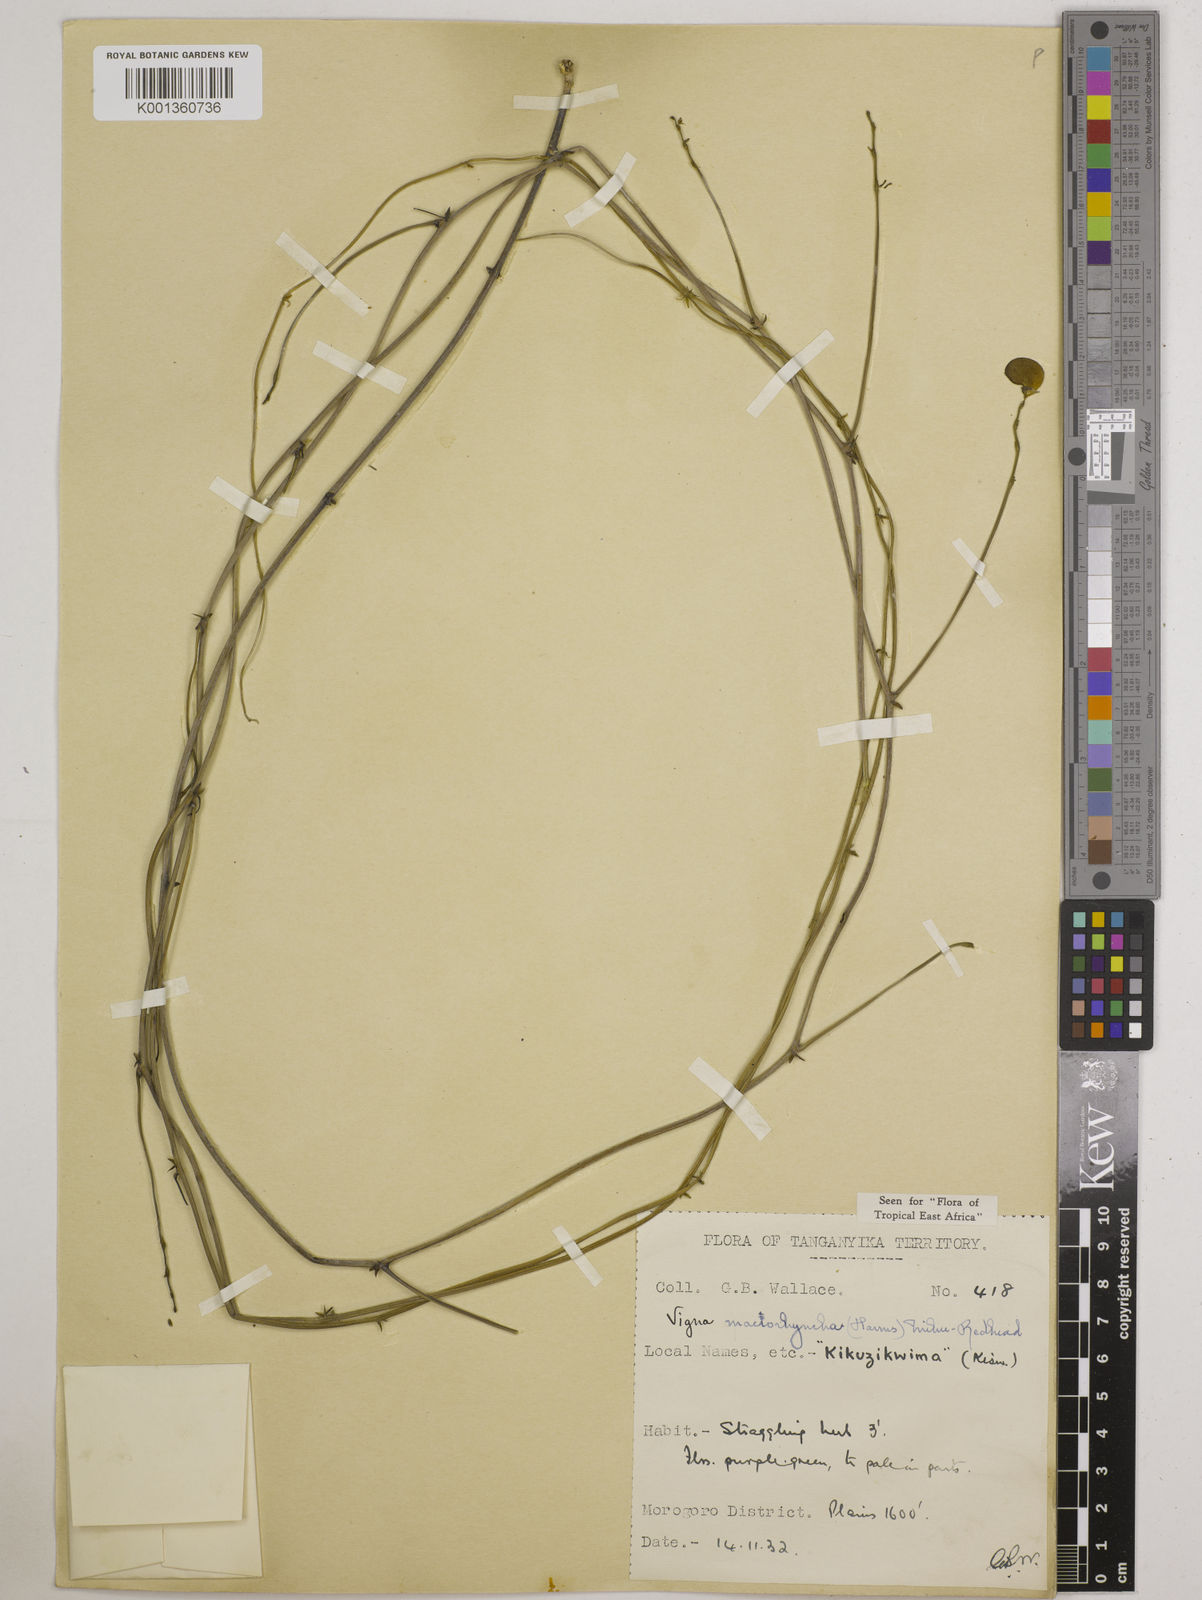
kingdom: Plantae
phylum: Tracheophyta
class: Magnoliopsida
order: Fabales
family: Fabaceae
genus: Wajira
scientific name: Wajira grahamiana
